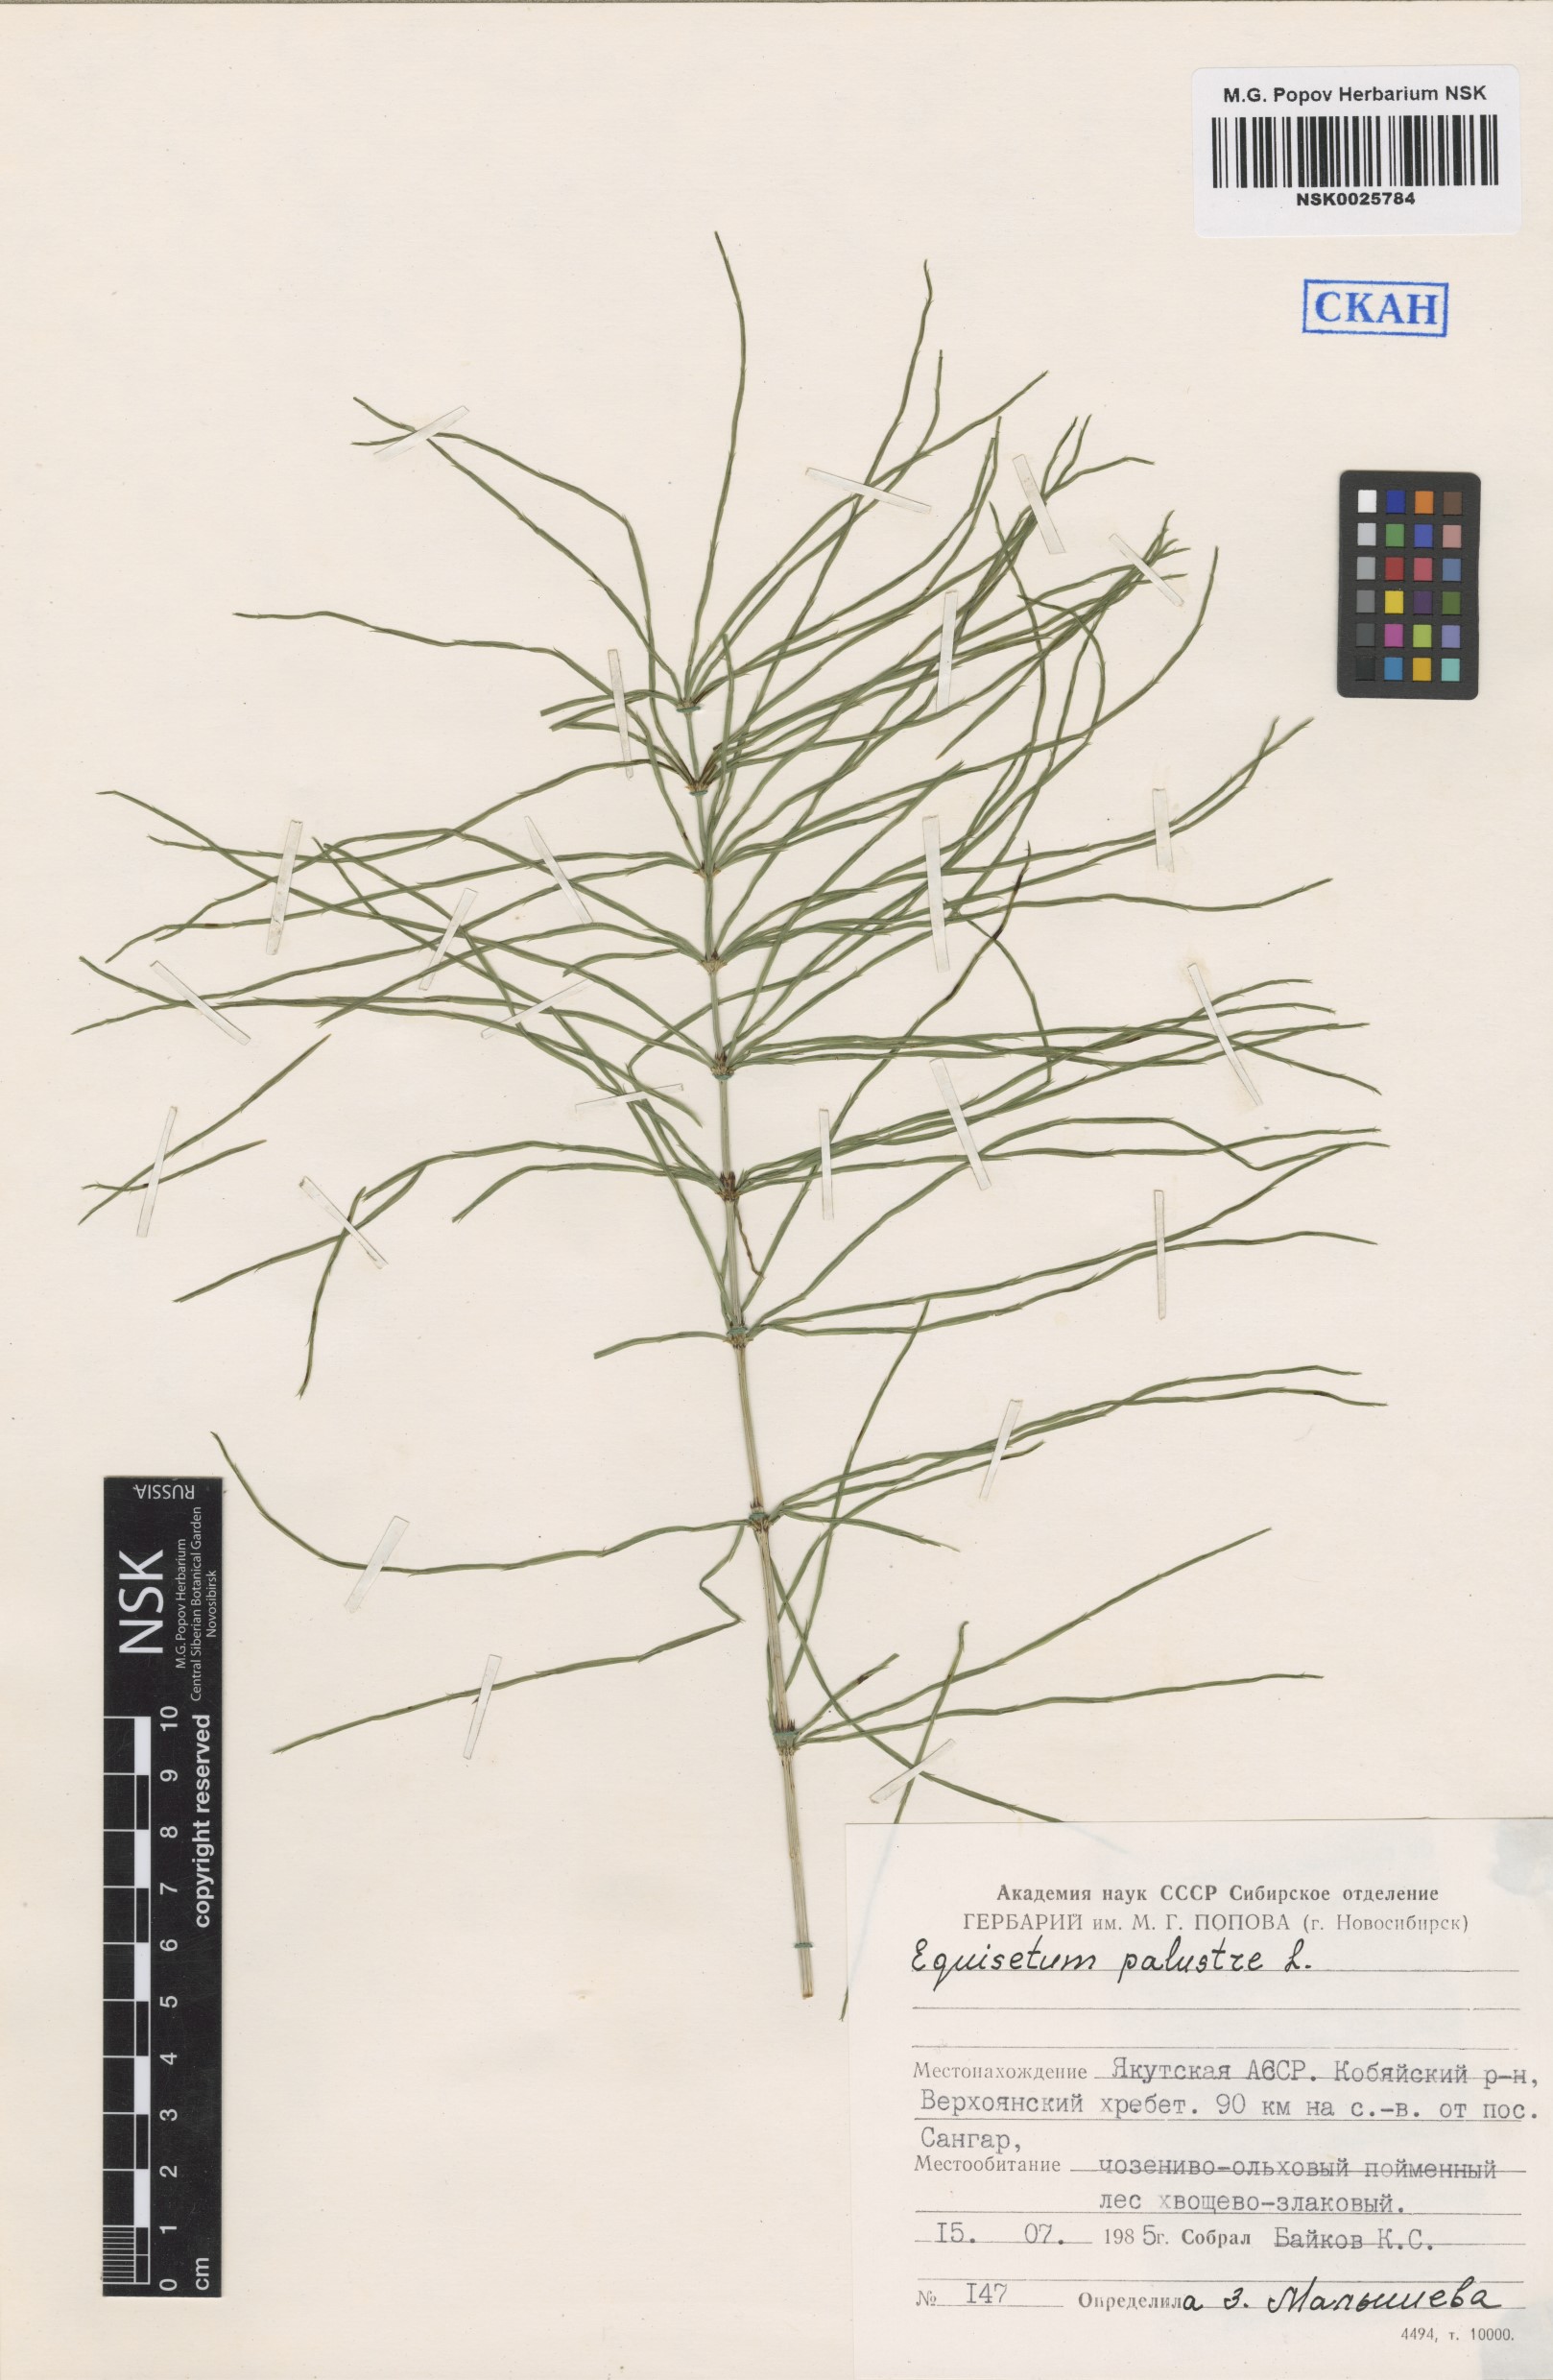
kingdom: Plantae
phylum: Tracheophyta
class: Polypodiopsida
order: Equisetales
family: Equisetaceae
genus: Equisetum
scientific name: Equisetum palustre
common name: Marsh horsetail
